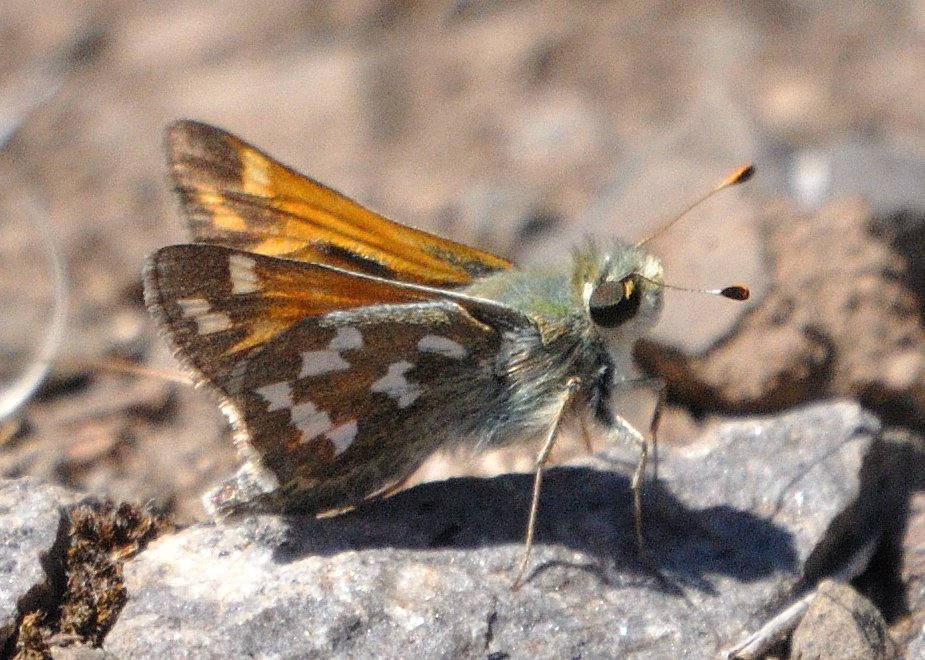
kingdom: Animalia
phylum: Arthropoda
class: Insecta
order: Lepidoptera
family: Hesperiidae
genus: Hesperia
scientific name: Hesperia juba
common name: Juba Skipper
